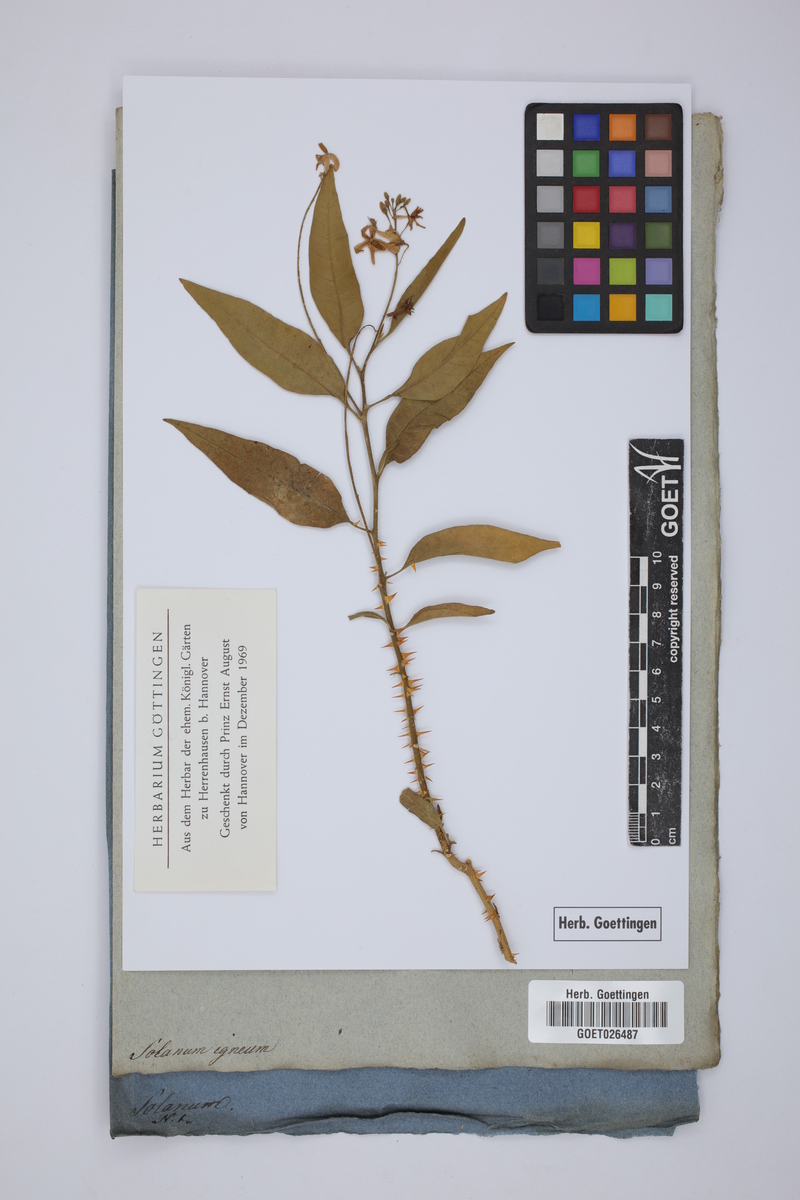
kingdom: Plantae
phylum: Tracheophyta
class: Magnoliopsida
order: Solanales
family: Solanaceae
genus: Solanum
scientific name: Solanum bahamense
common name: Canker-berry
